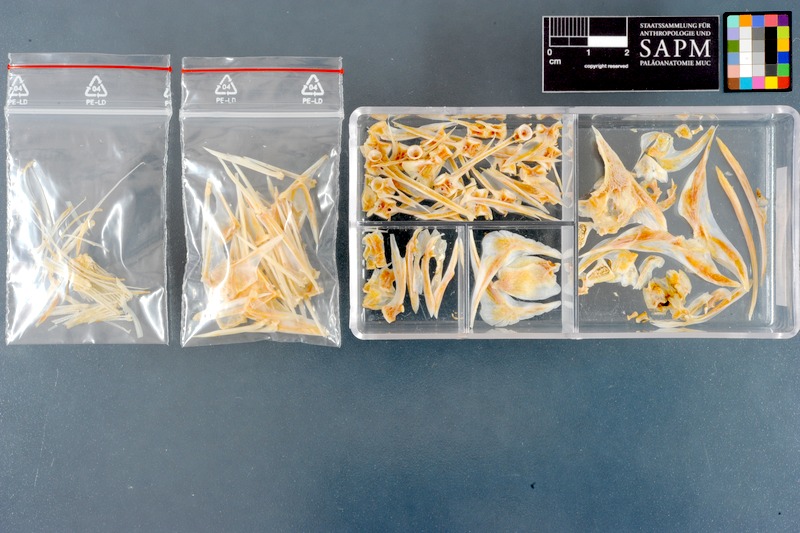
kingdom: Animalia
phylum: Chordata
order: Perciformes
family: Siganidae
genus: Siganus
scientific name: Siganus javus
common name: Java rabbitfish
